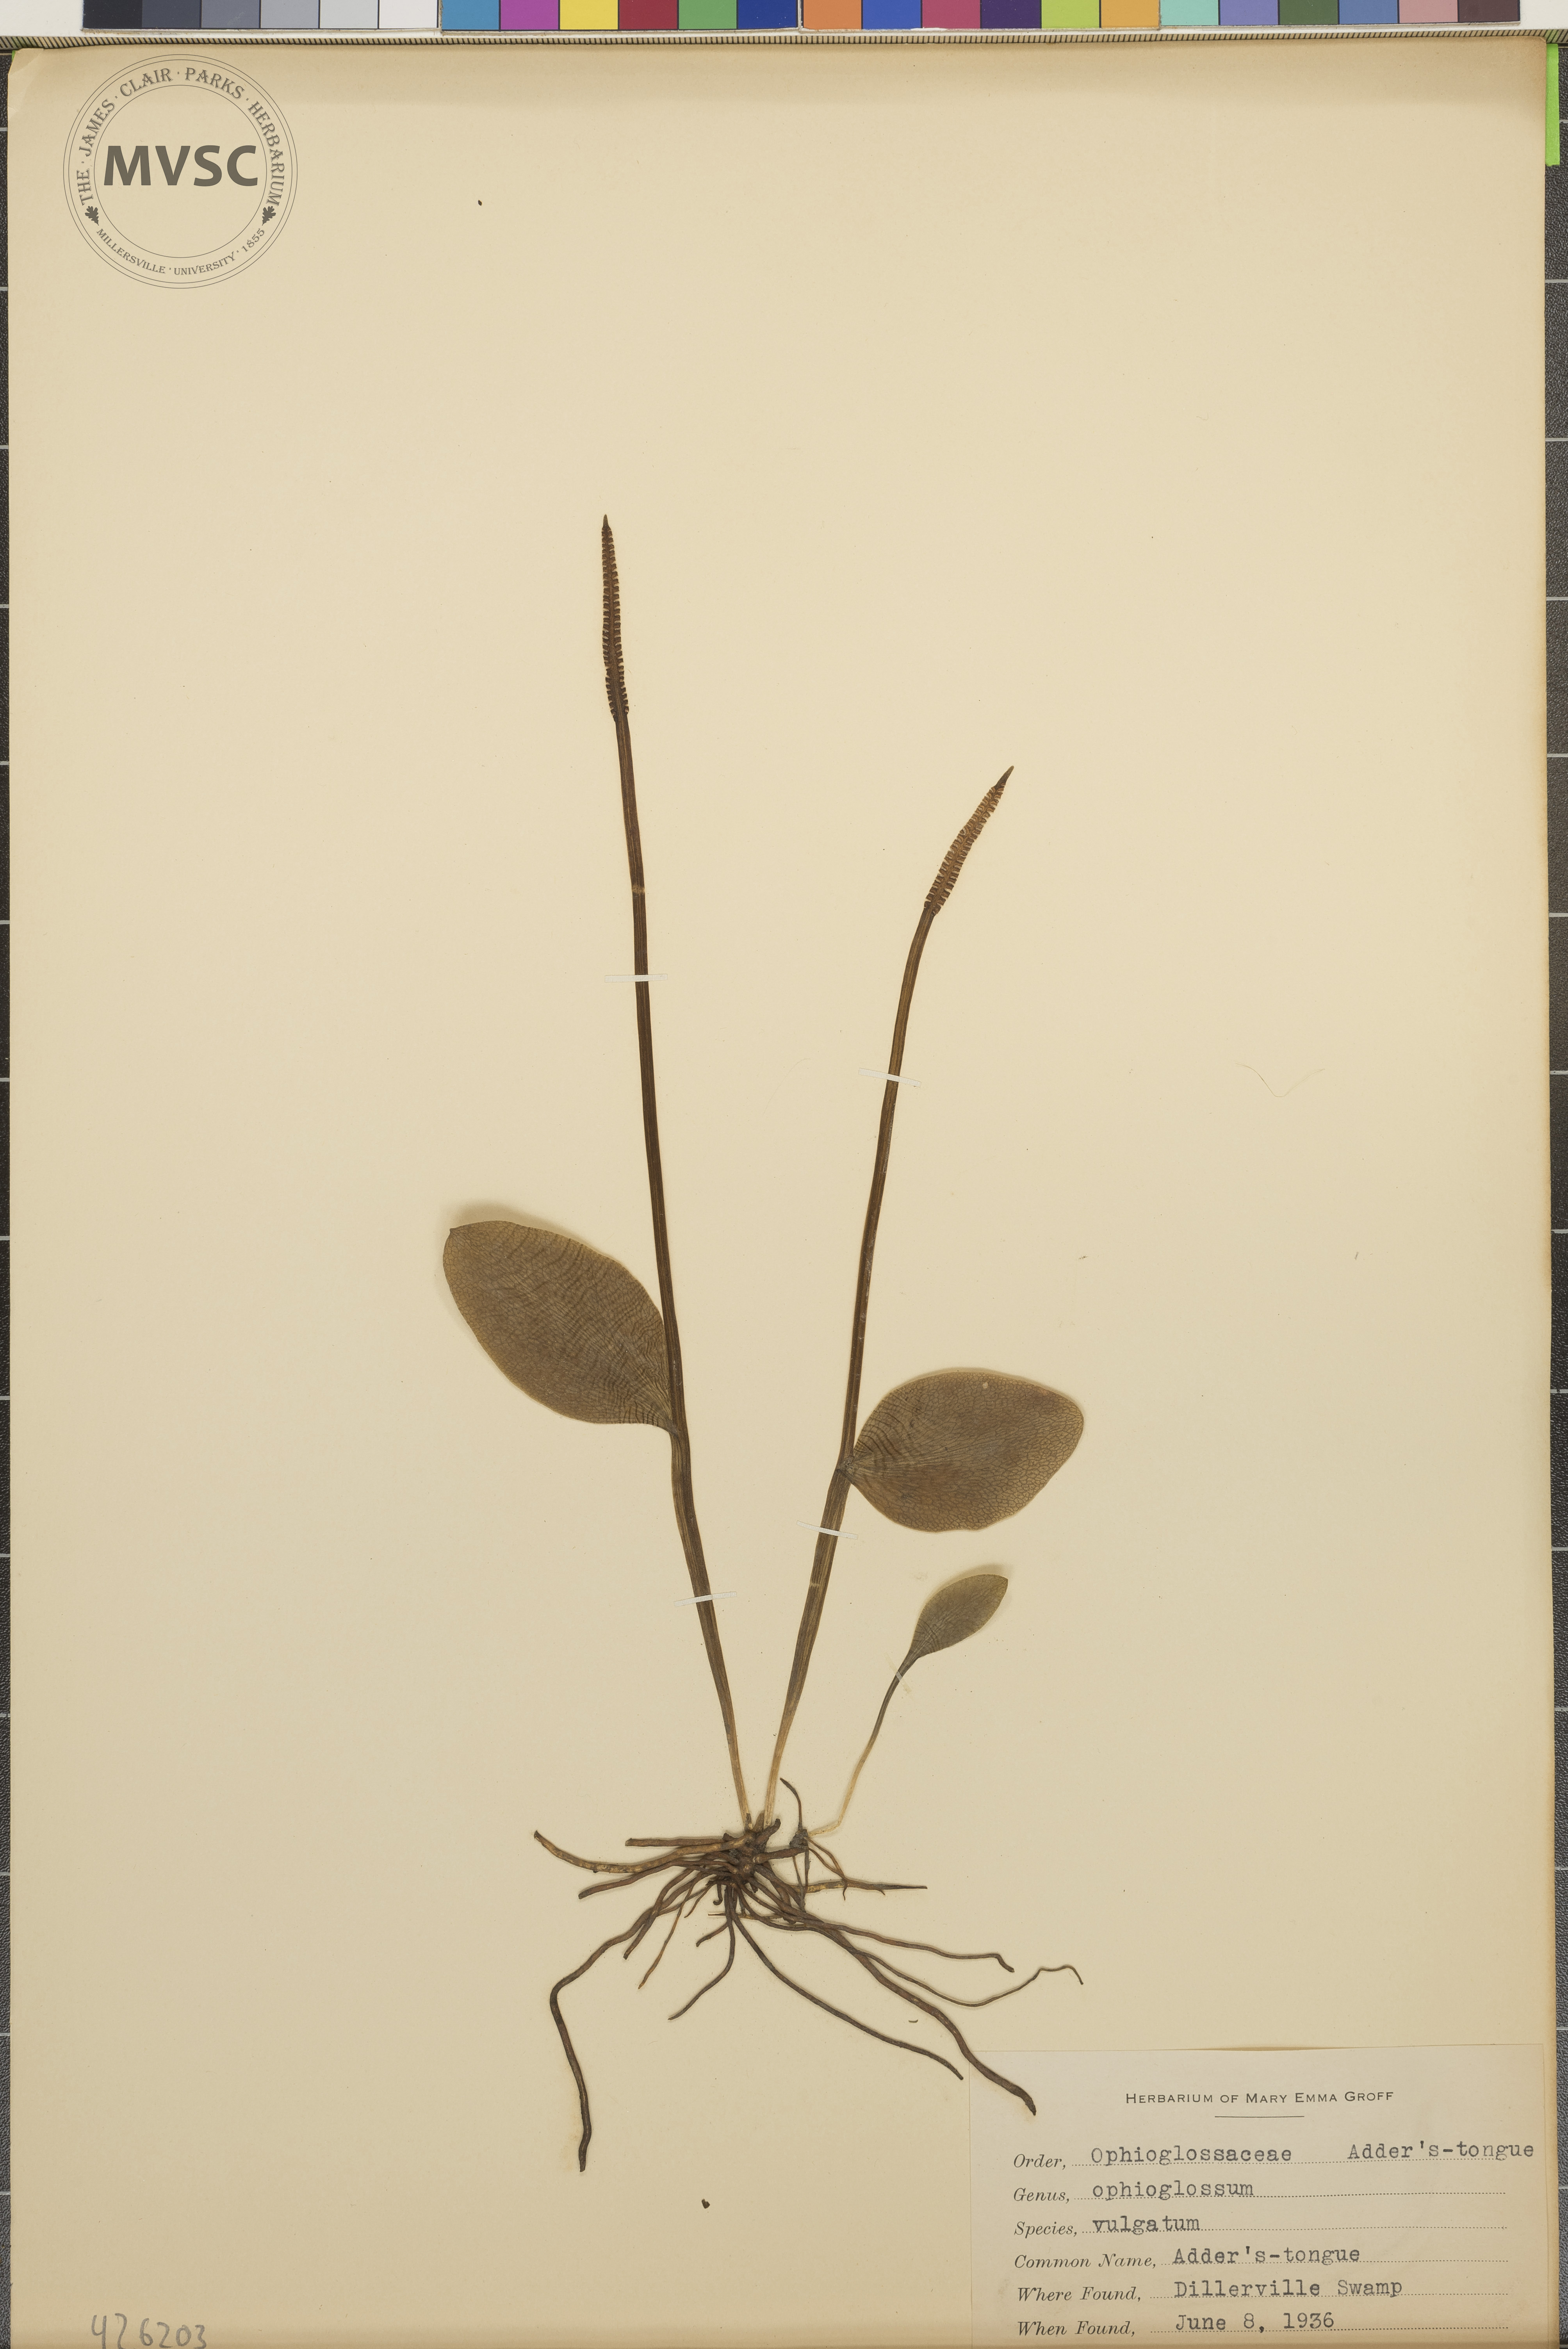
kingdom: Plantae
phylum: Tracheophyta
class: Polypodiopsida
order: Ophioglossales
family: Ophioglossaceae
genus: Ophioglossum
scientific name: Ophioglossum vulgatum
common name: Adder's-tongue
